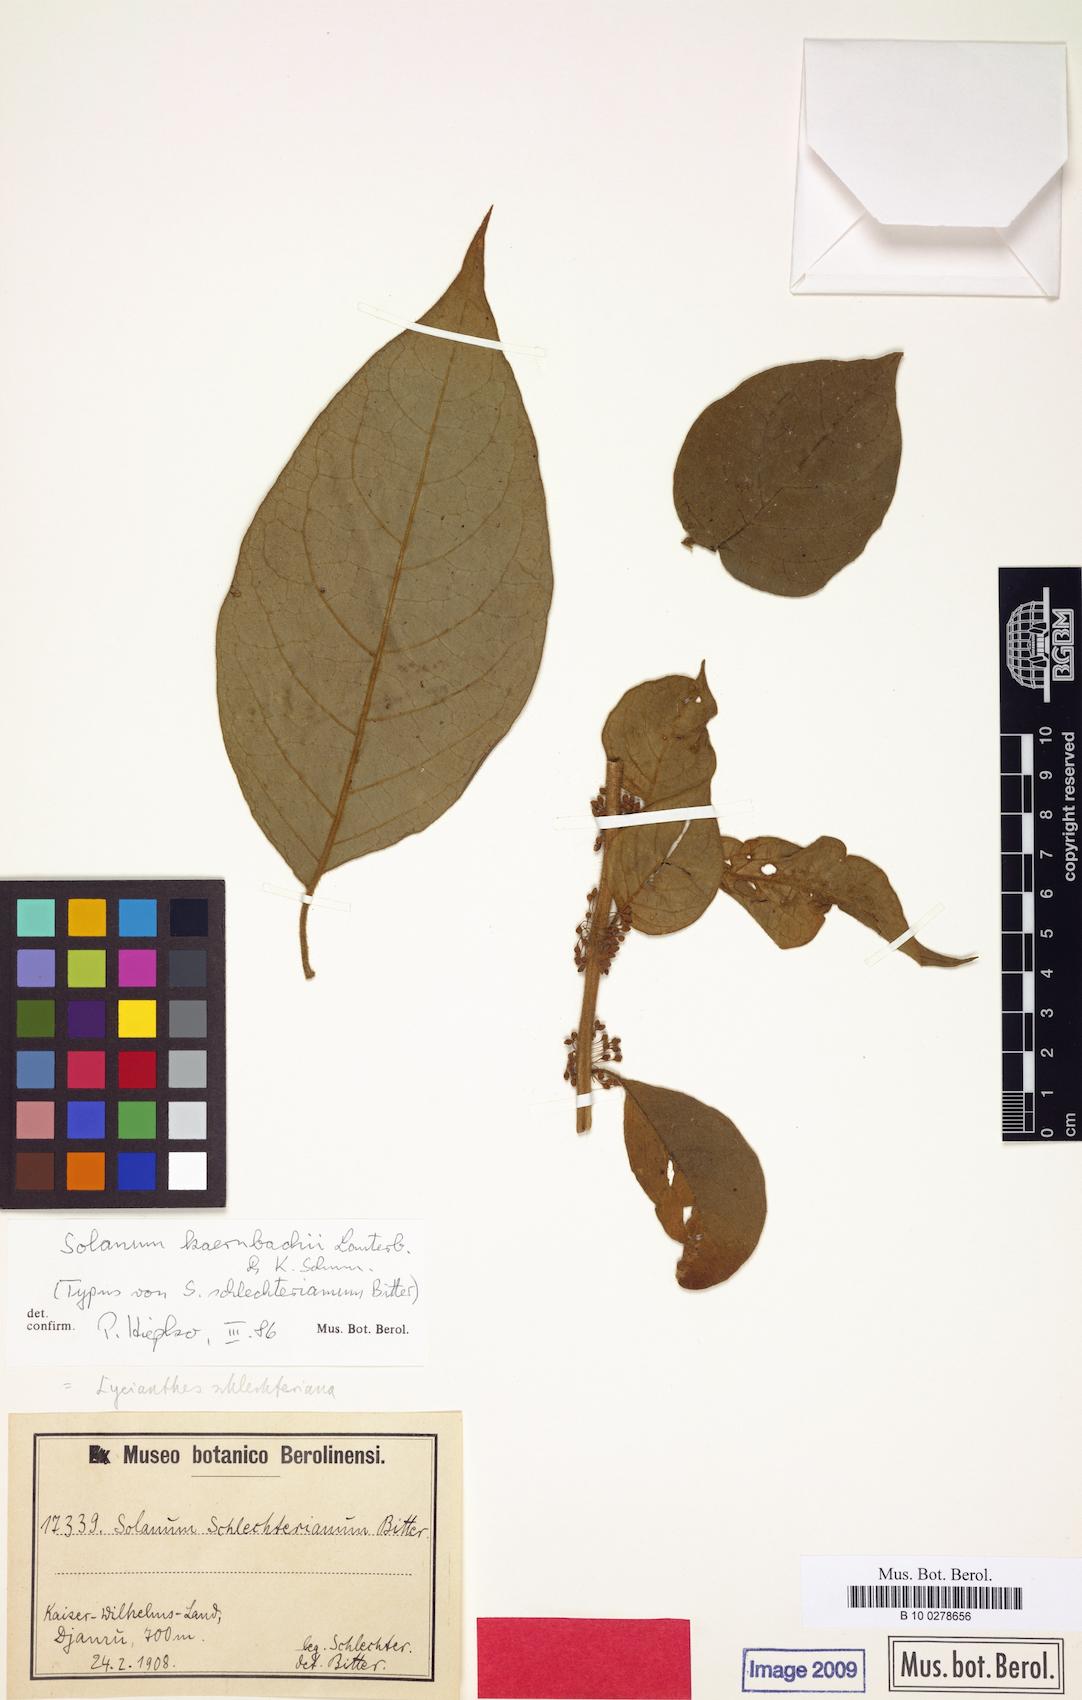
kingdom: Plantae
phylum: Tracheophyta
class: Magnoliopsida
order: Solanales
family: Solanaceae
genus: Lycianthes
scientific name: Lycianthes kaernbachii
